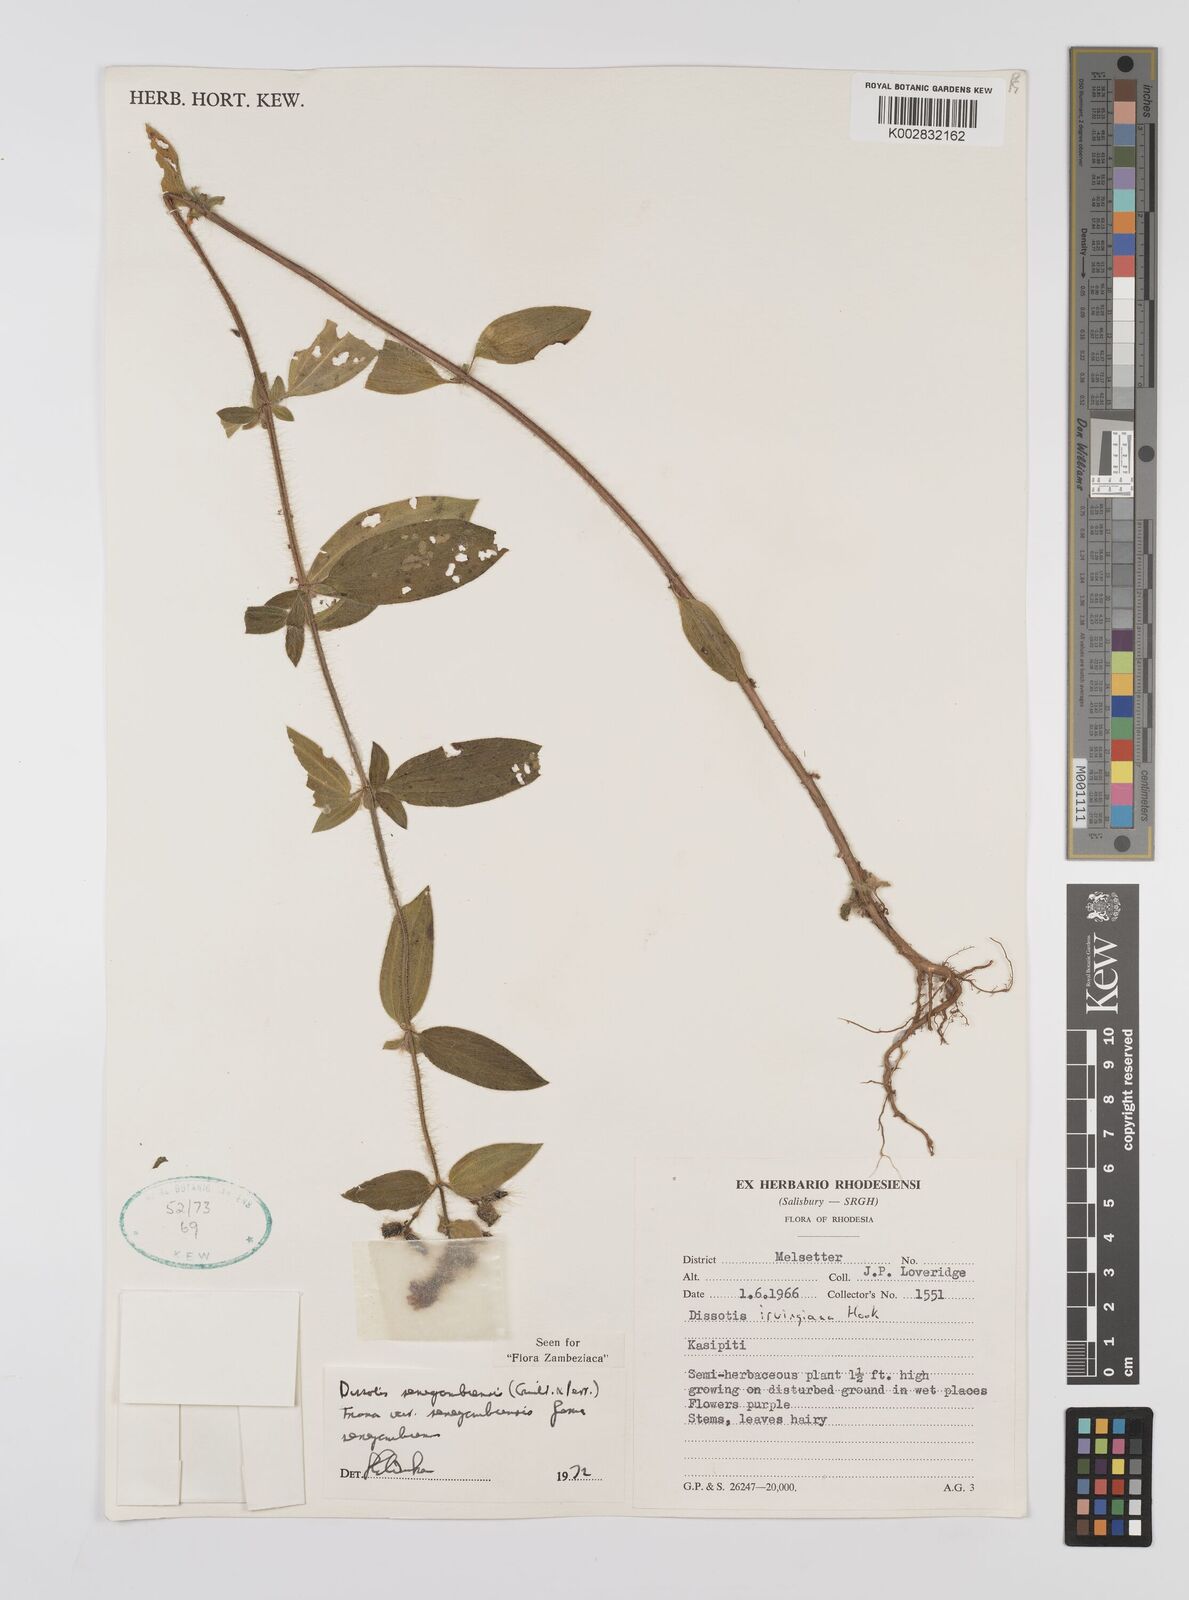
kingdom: Plantae
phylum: Tracheophyta
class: Magnoliopsida
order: Myrtales
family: Melastomataceae
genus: Nerophila
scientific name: Nerophila senegambiensis
